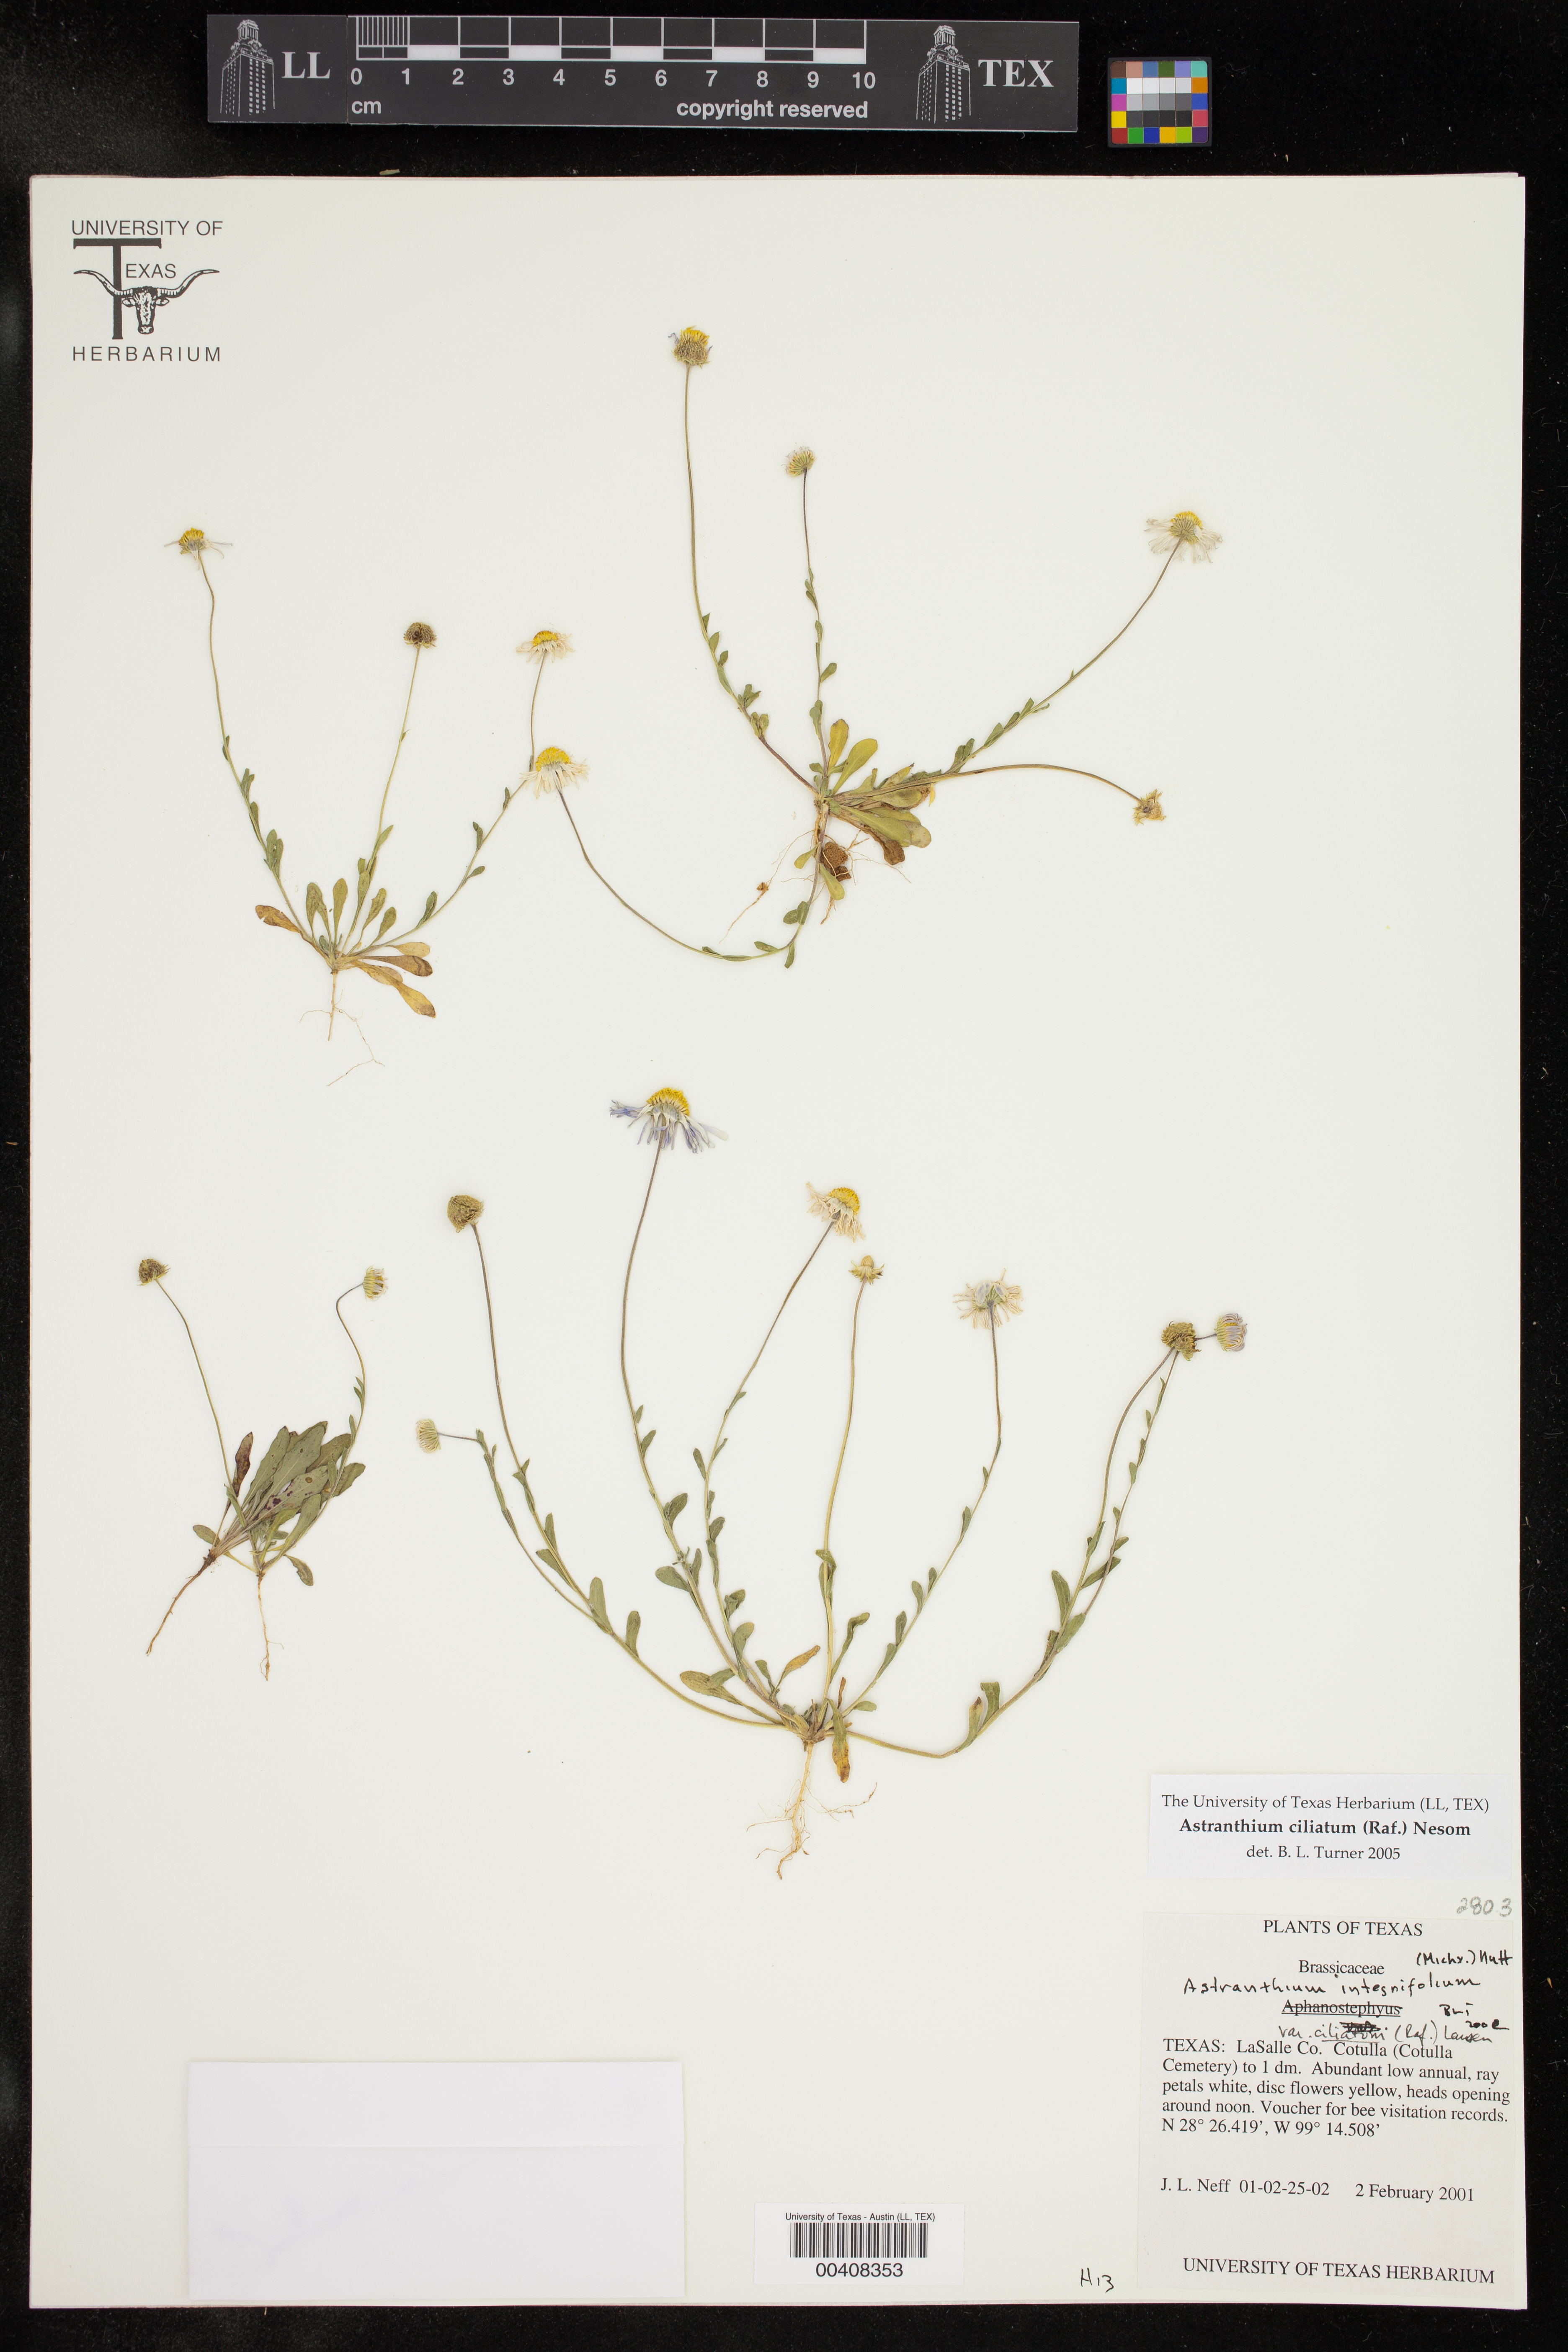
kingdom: Plantae
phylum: Tracheophyta
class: Magnoliopsida
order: Asterales
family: Asteraceae
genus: Astranthium
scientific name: Astranthium ciliatum
